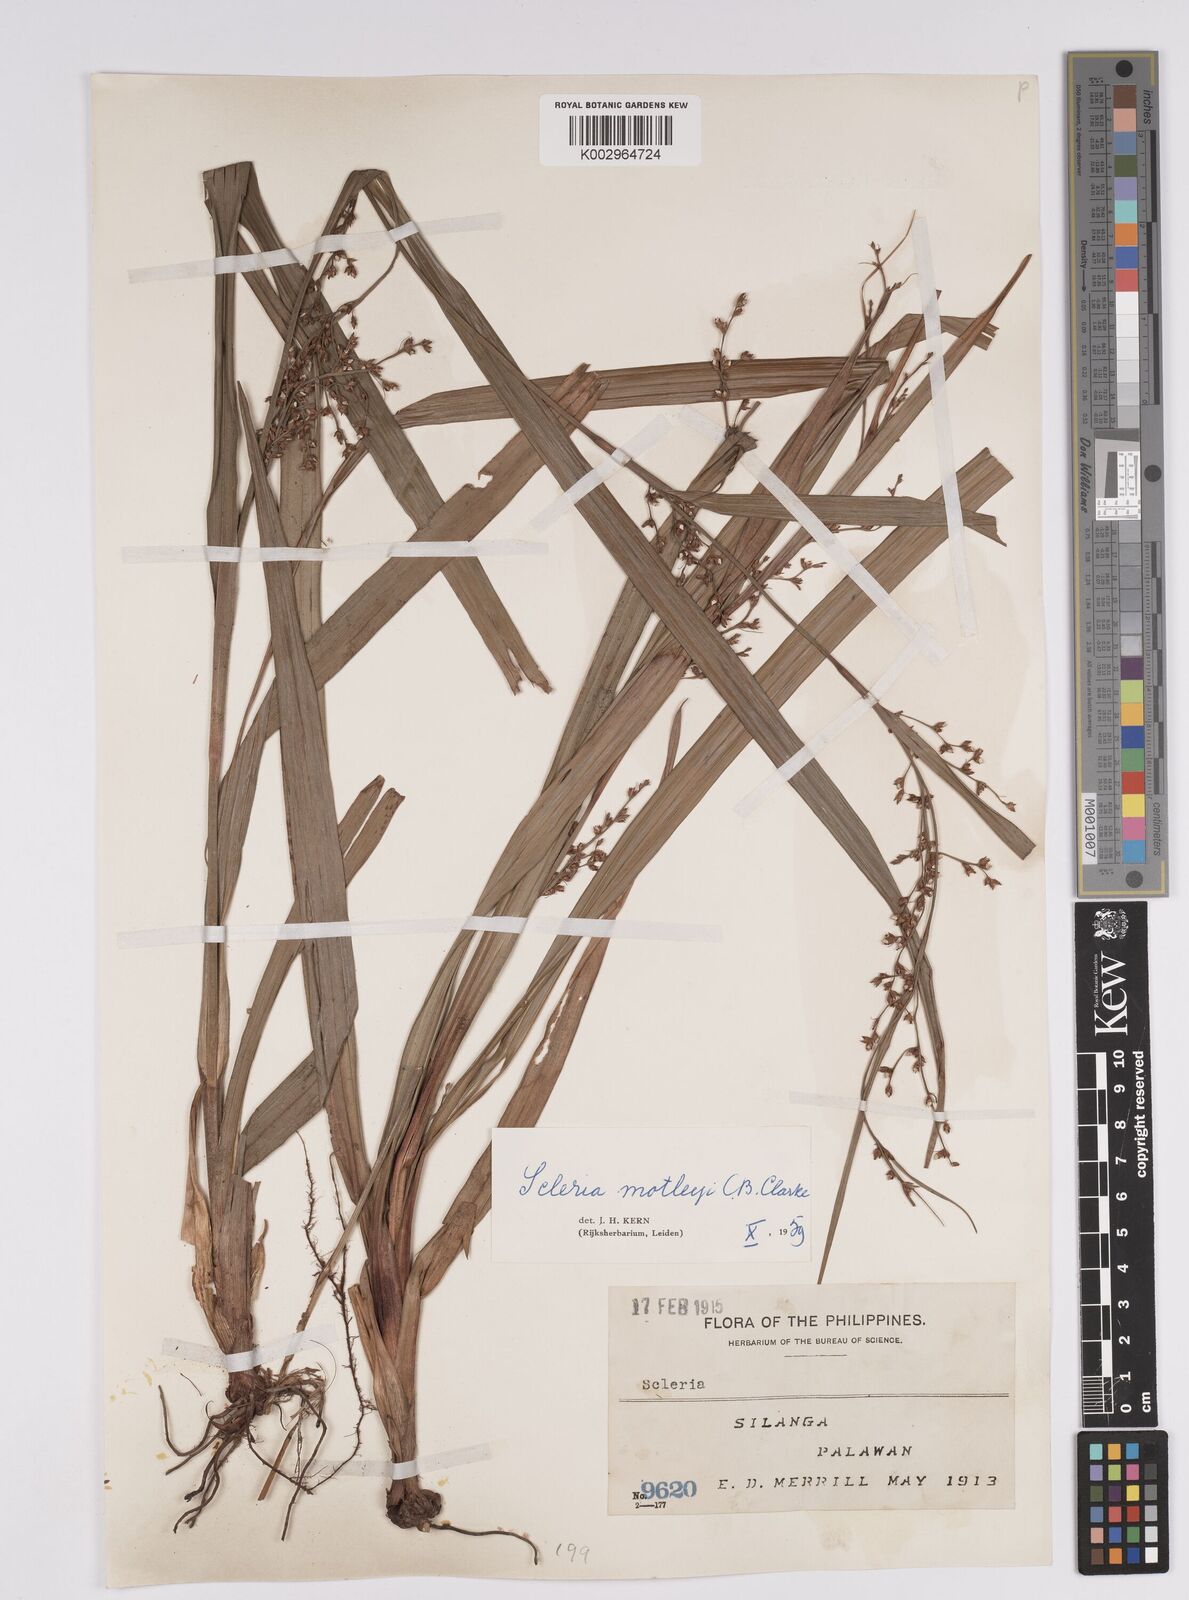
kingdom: Plantae
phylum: Tracheophyta
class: Liliopsida
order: Poales
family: Cyperaceae
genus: Scleria
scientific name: Scleria motleyi
